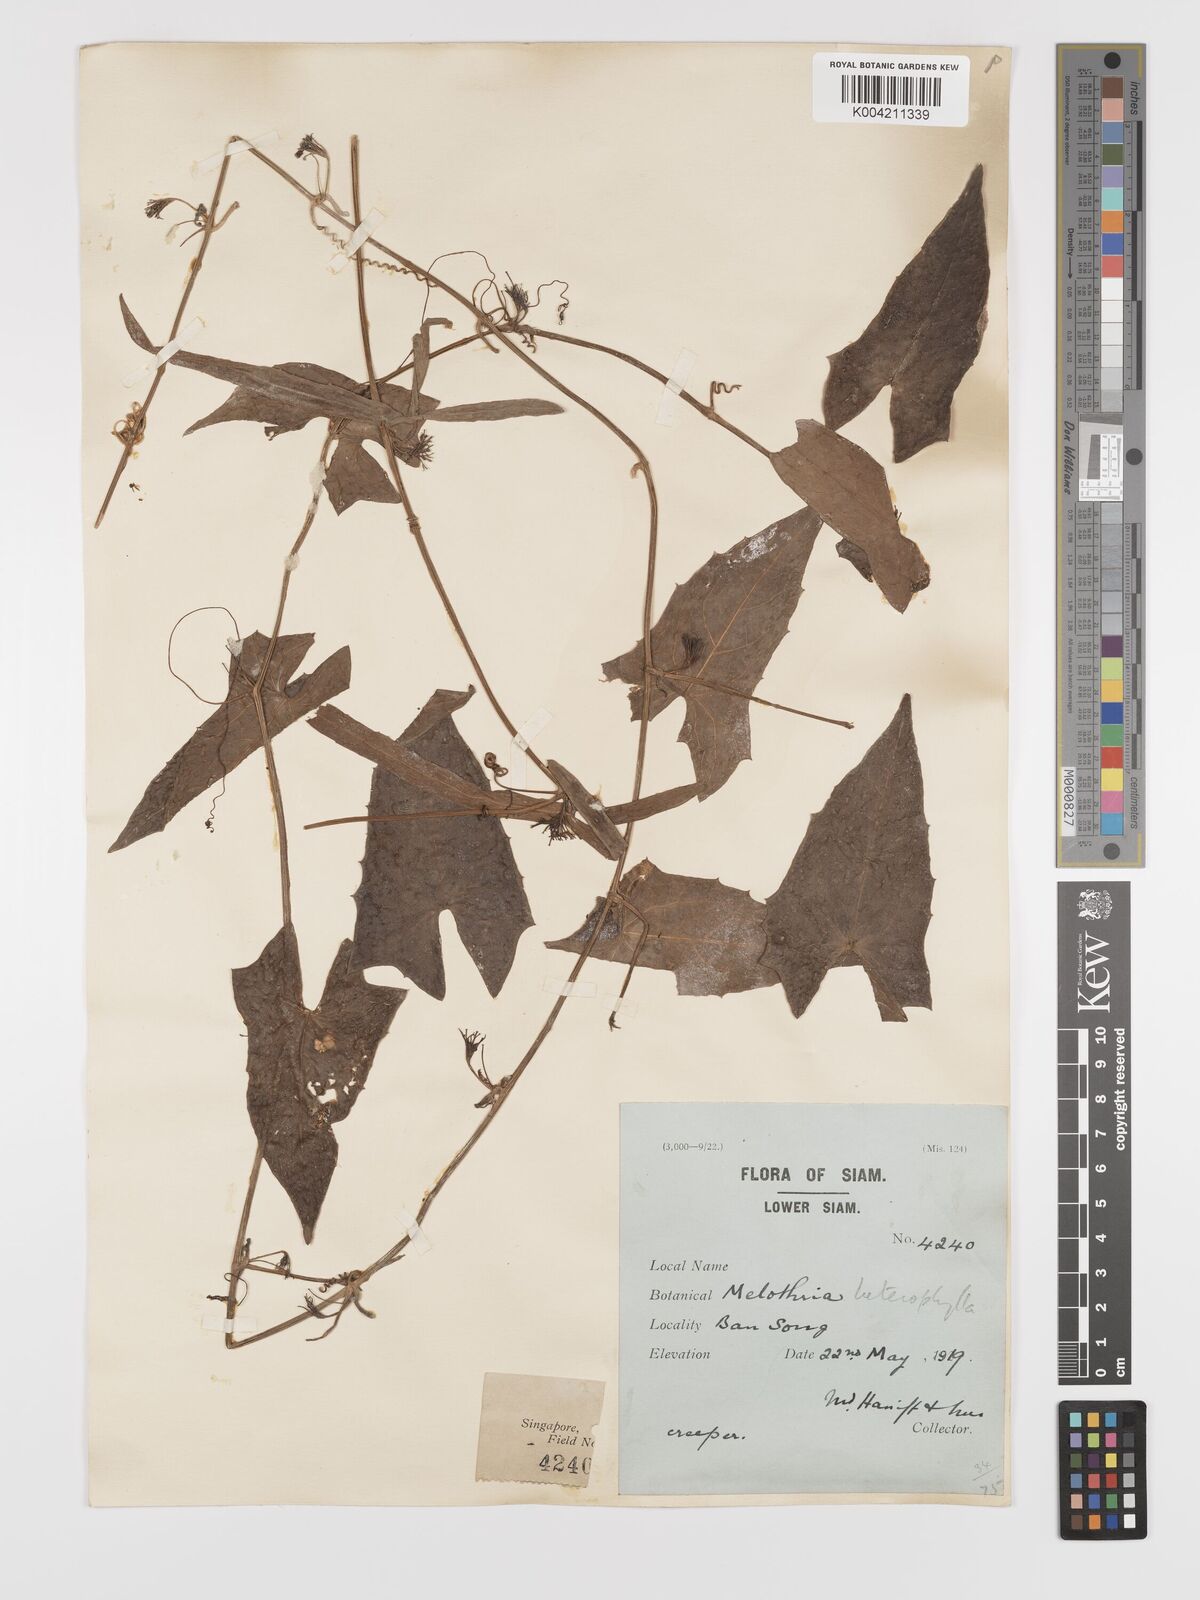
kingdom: Plantae
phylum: Tracheophyta
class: Magnoliopsida
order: Cucurbitales
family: Cucurbitaceae
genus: Solena
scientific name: Solena amplexicaulis
